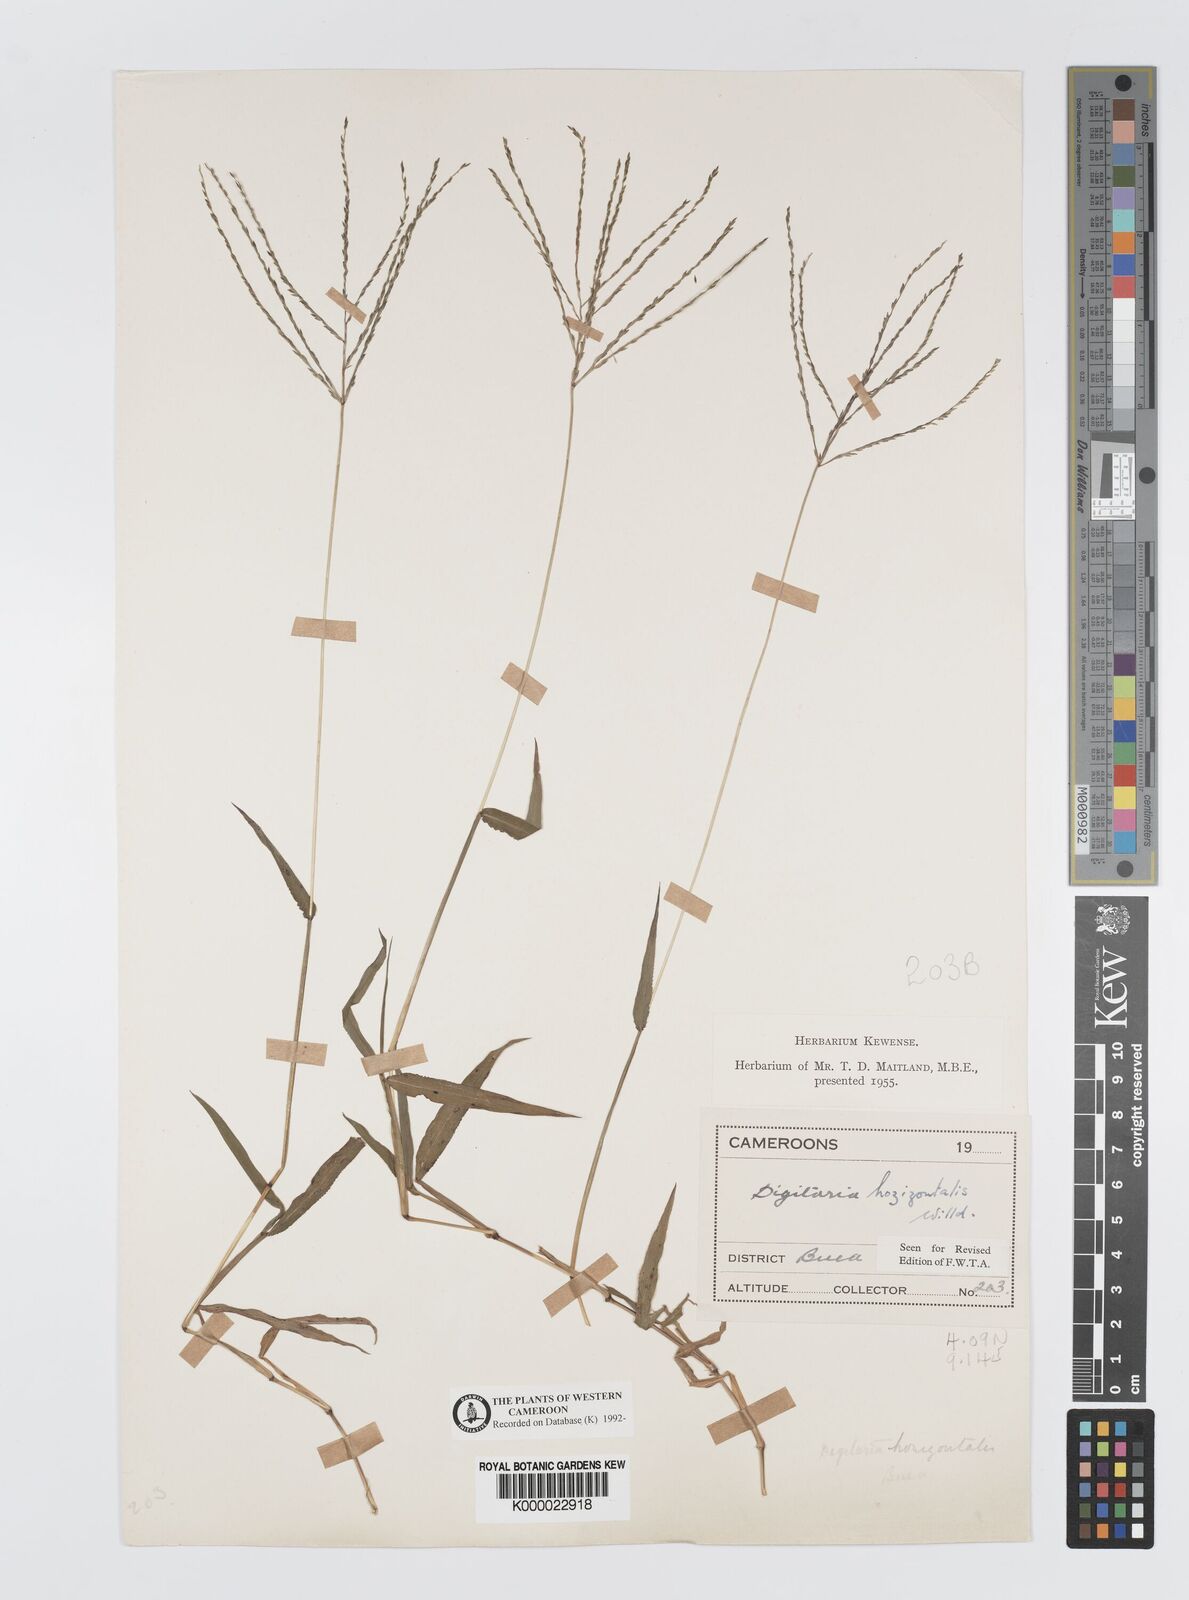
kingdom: Plantae
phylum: Tracheophyta
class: Liliopsida
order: Poales
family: Poaceae
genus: Digitaria
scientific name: Digitaria horizontalis
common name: Jamaican crabgrass
